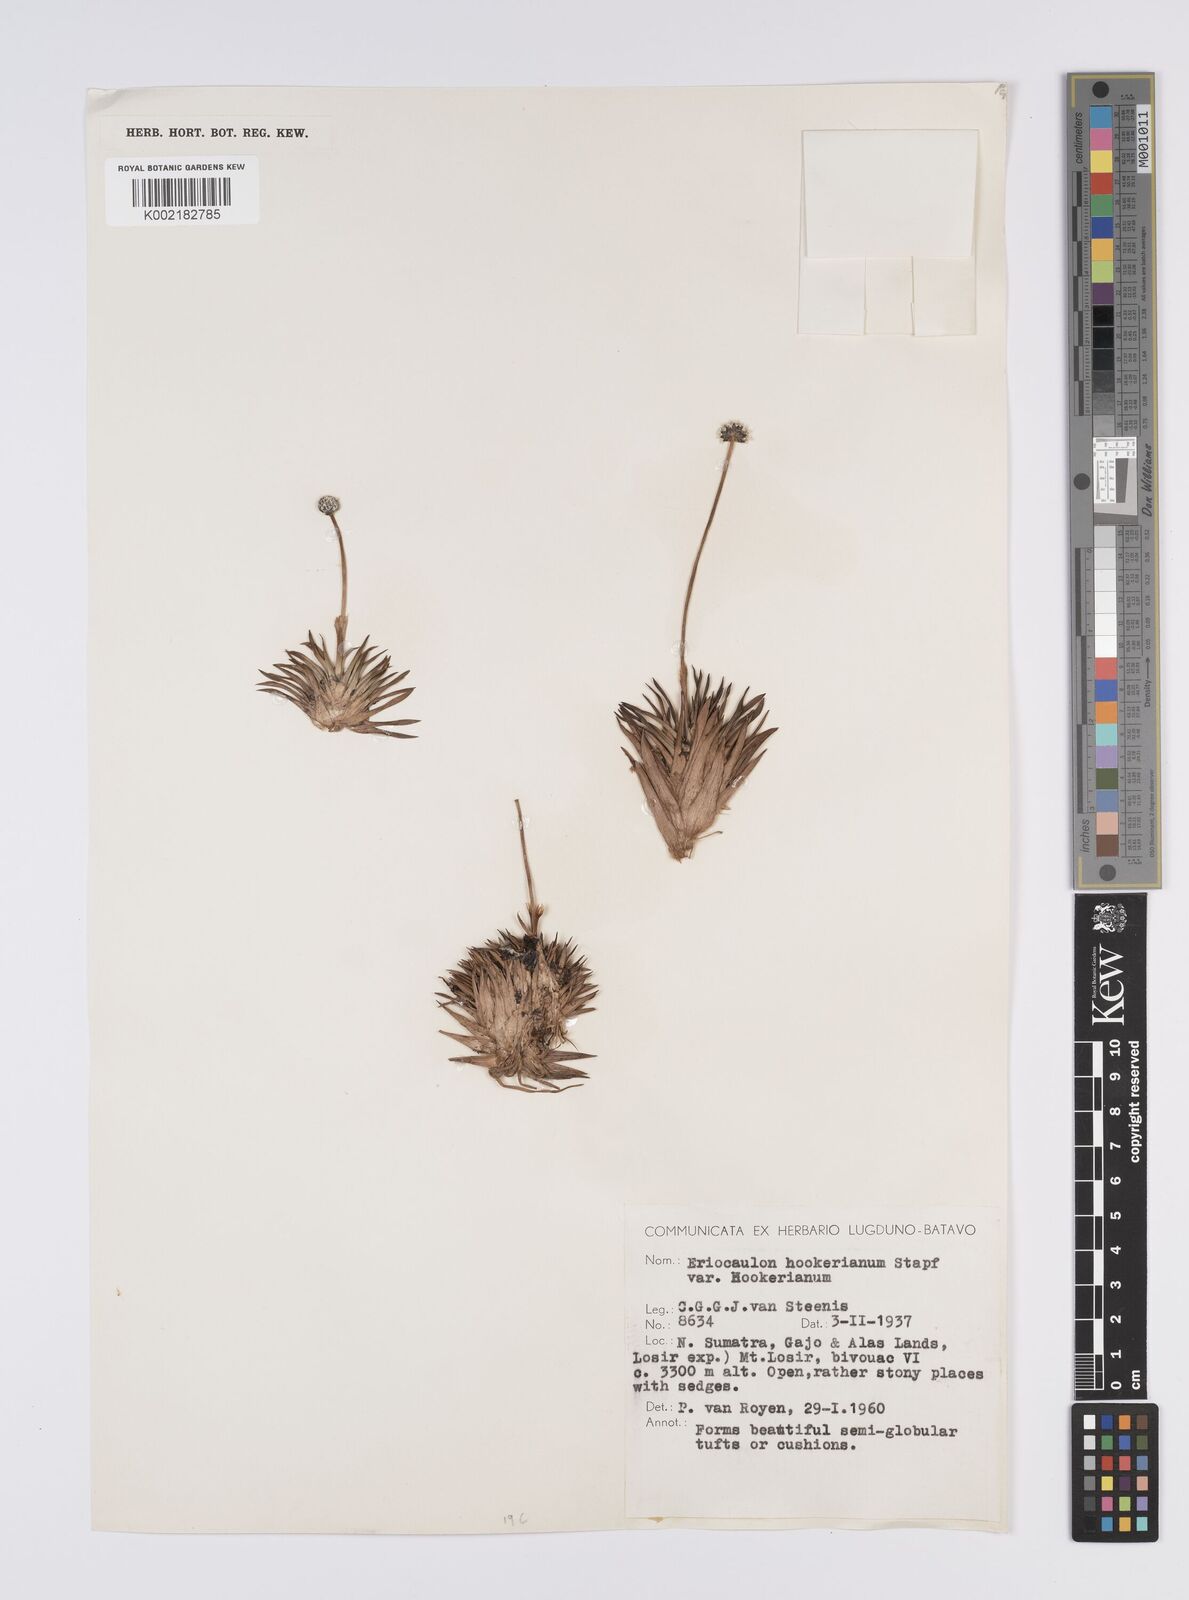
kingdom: Plantae
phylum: Tracheophyta
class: Liliopsida
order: Poales
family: Eriocaulaceae
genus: Eriocaulon
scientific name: Eriocaulon hookerianum
